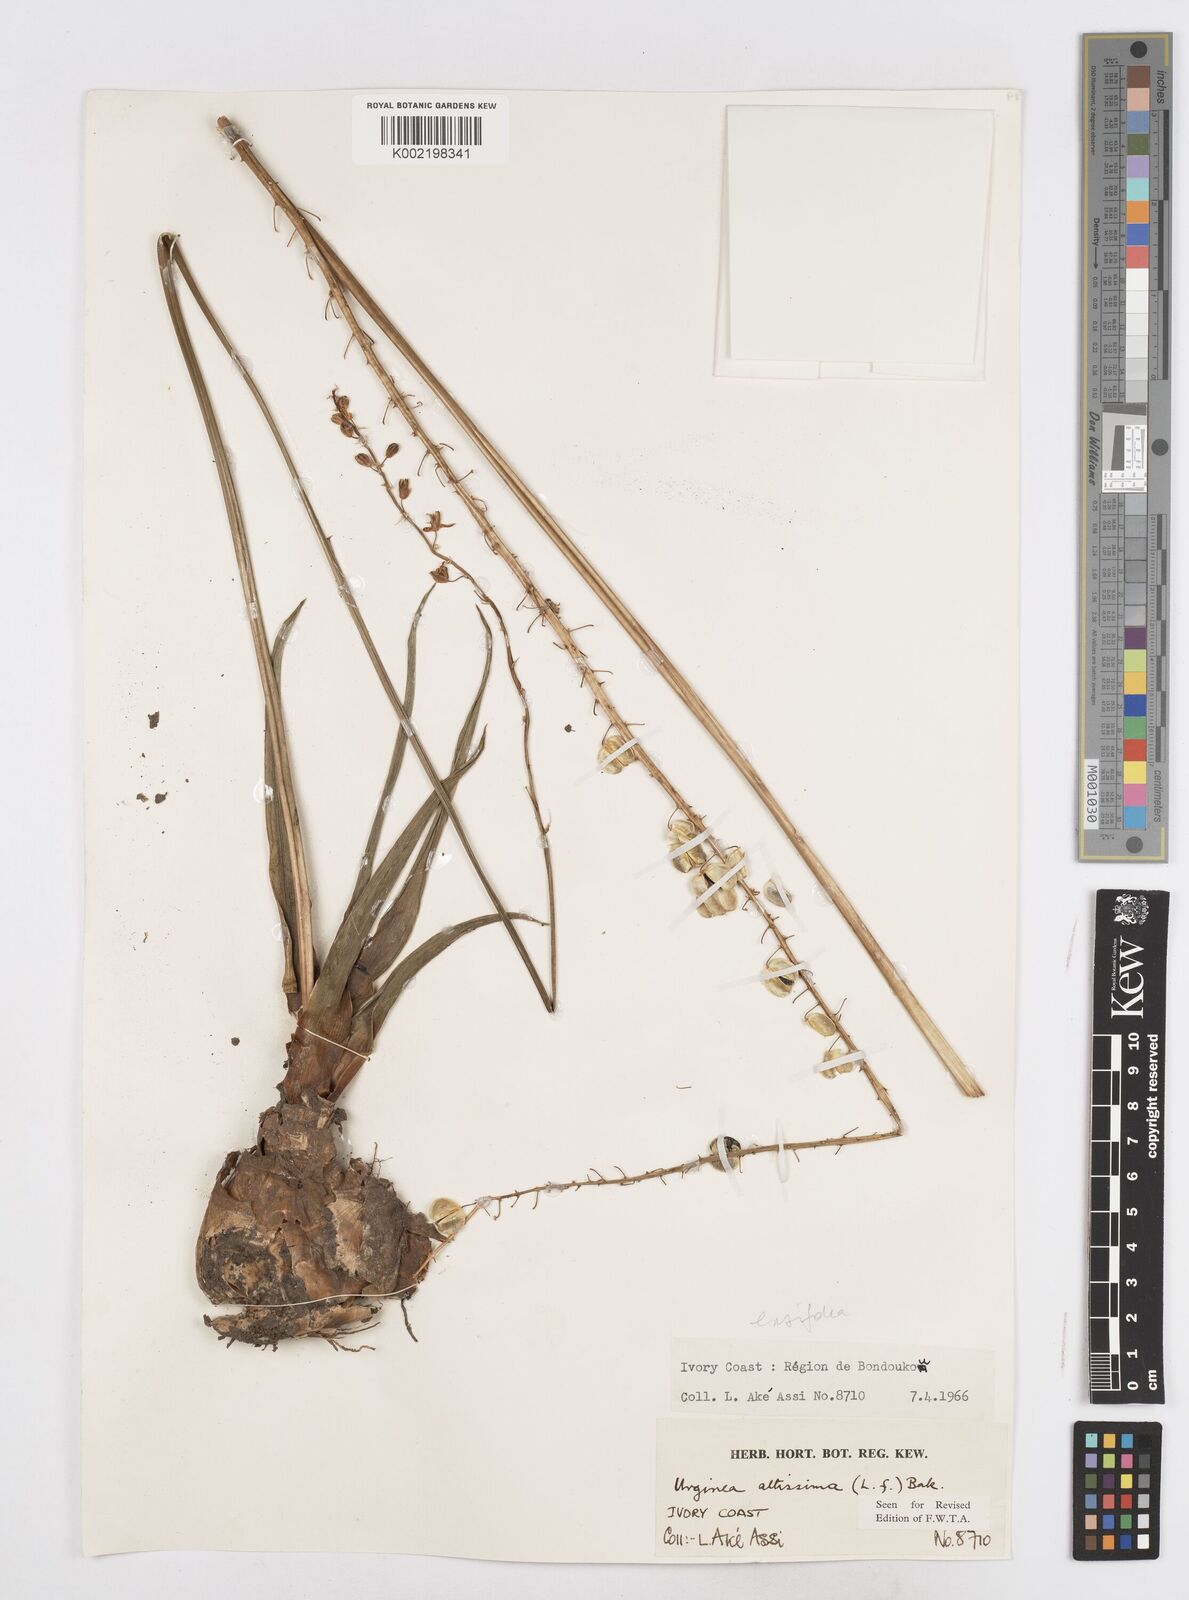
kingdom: Plantae
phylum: Tracheophyta
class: Liliopsida
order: Asparagales
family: Asparagaceae
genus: Ledebouria
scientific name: Ledebouria ensifolia
